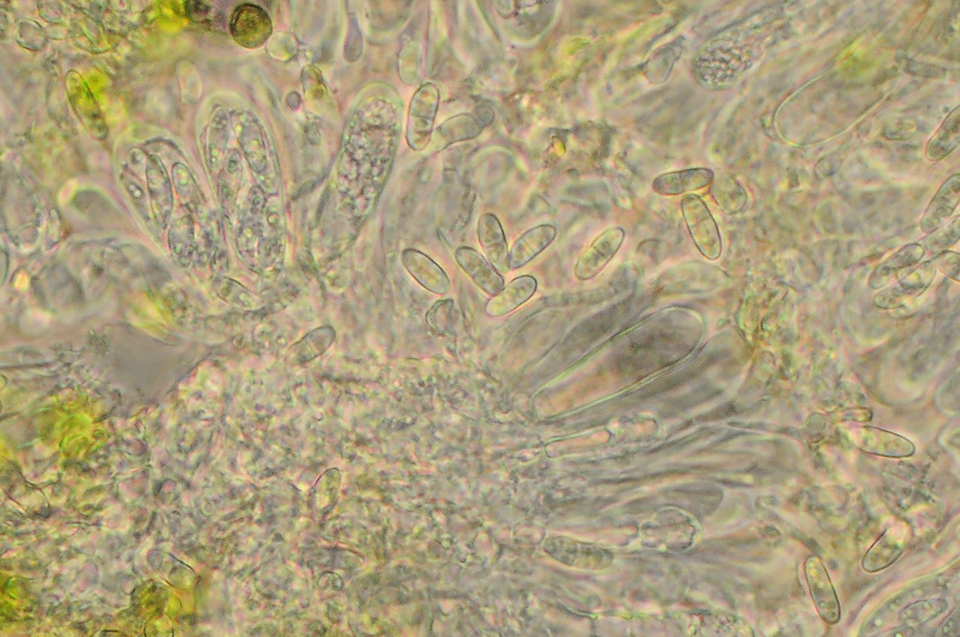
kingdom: Fungi
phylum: Ascomycota
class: Lecanoromycetes
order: Lecanorales
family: Ramalinaceae
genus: Lecania
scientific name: Lecania cyrtella
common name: hylde-lecania
